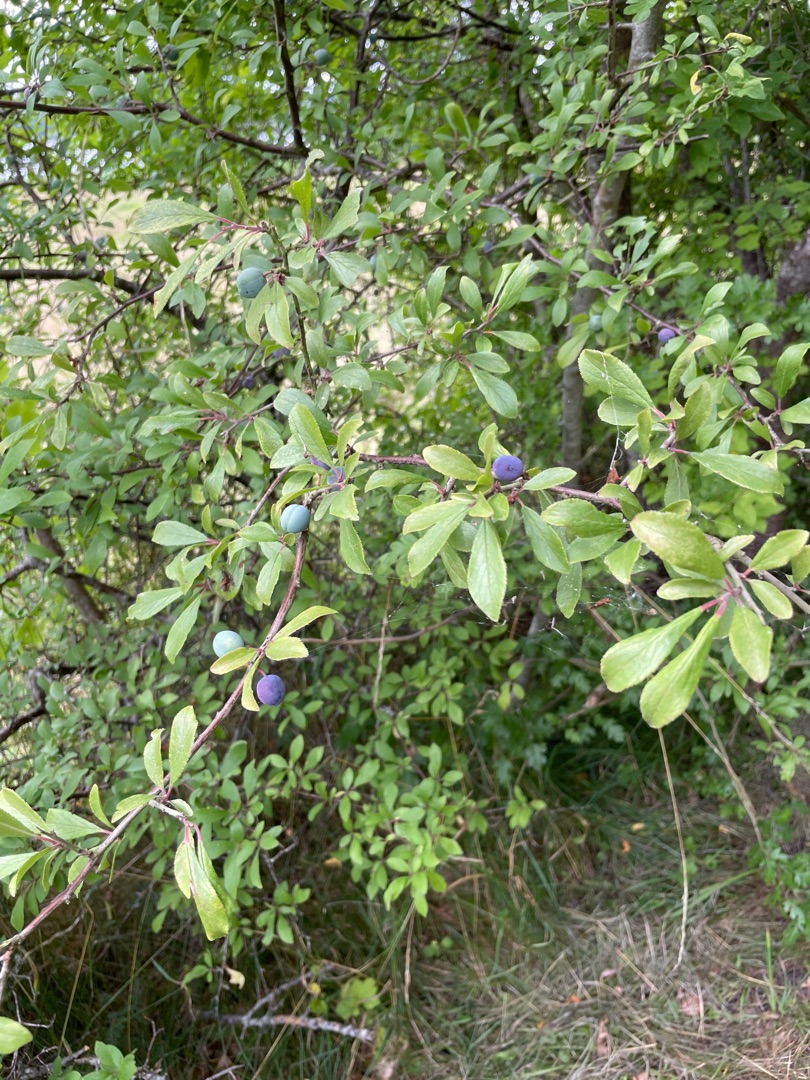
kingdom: Plantae
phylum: Tracheophyta
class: Magnoliopsida
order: Rosales
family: Rosaceae
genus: Prunus
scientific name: Prunus spinosa
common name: Slåen
